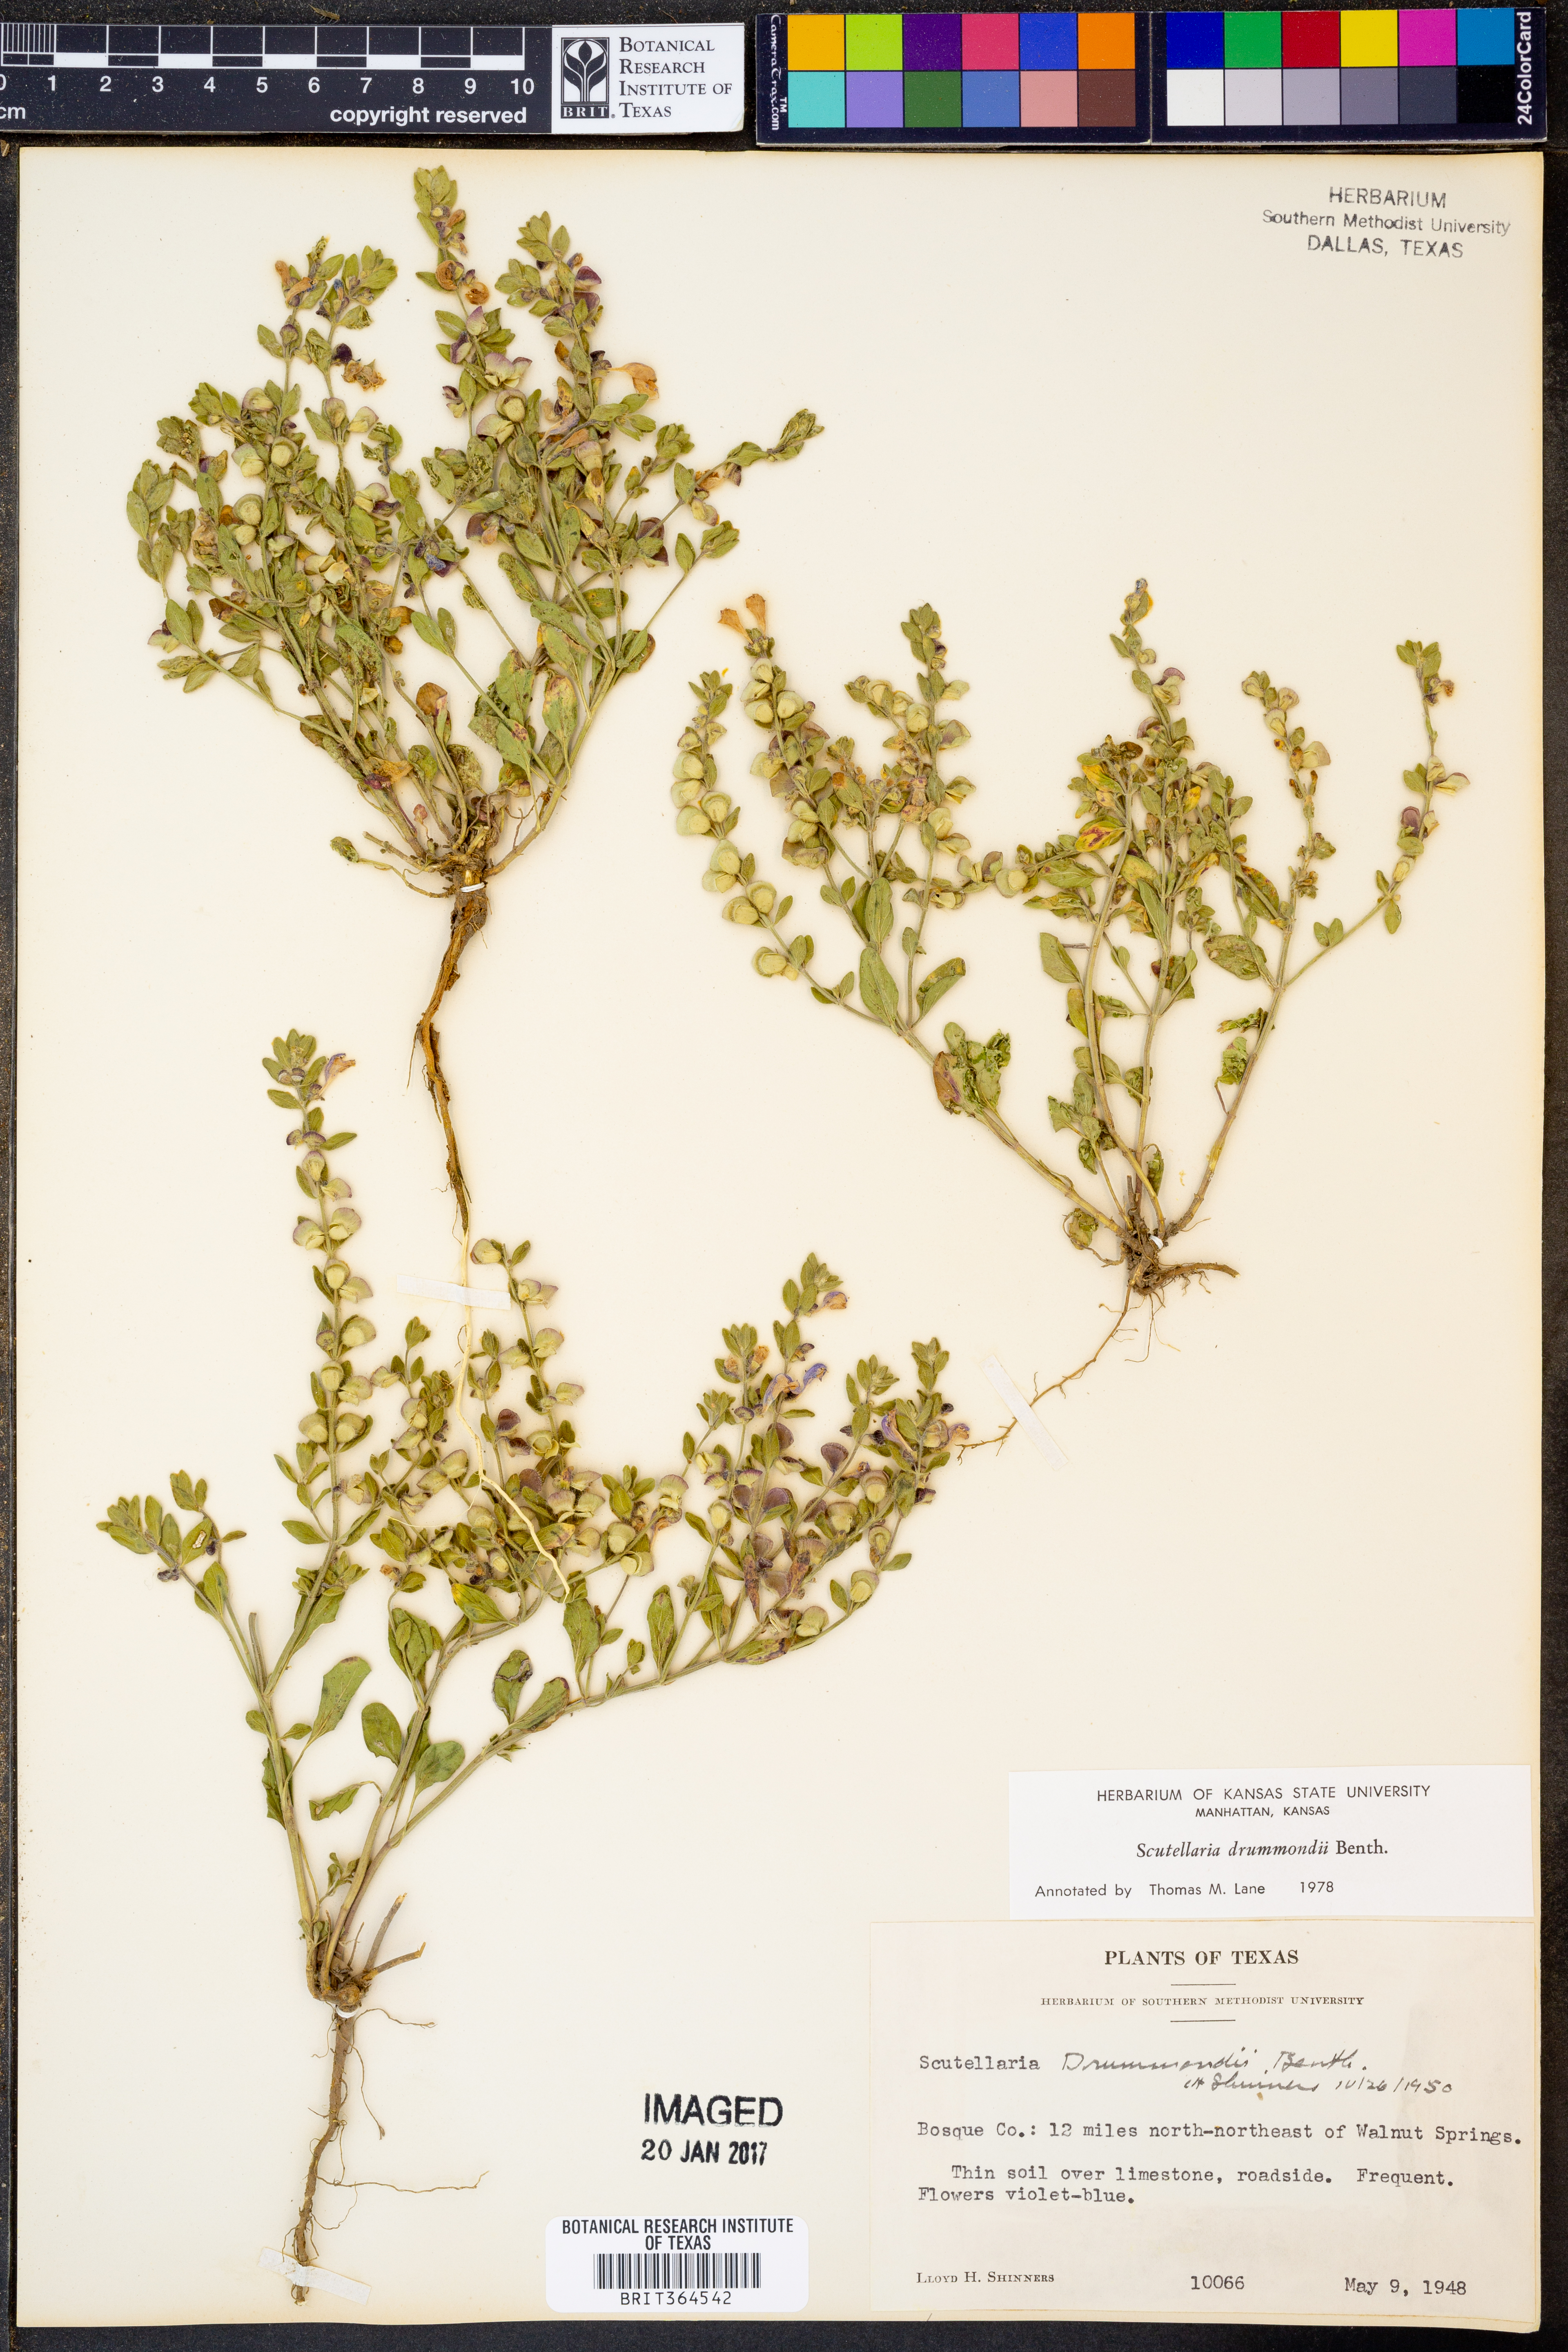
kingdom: Plantae
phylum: Tracheophyta
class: Magnoliopsida
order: Lamiales
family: Lamiaceae
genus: Scutellaria
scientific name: Scutellaria drummondii
